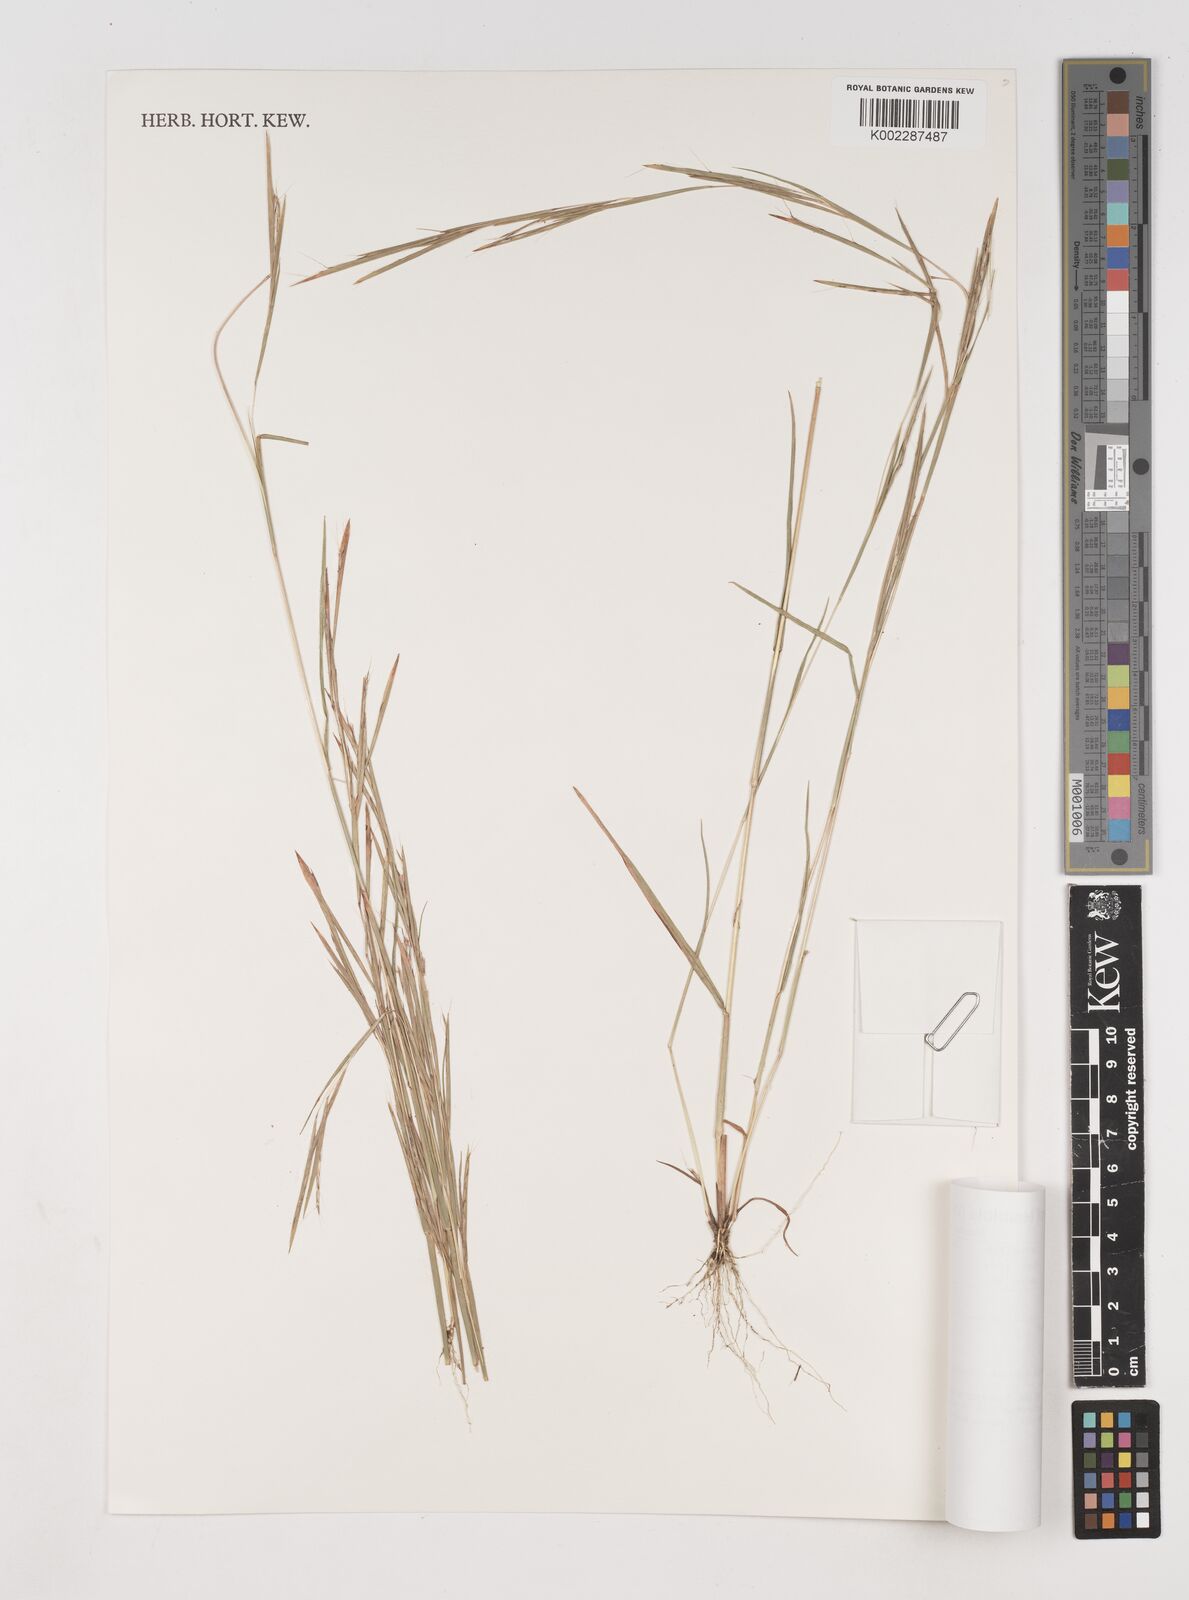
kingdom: Plantae
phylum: Tracheophyta
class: Liliopsida
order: Poales
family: Poaceae
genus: Schizachyrium
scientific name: Schizachyrium exile
